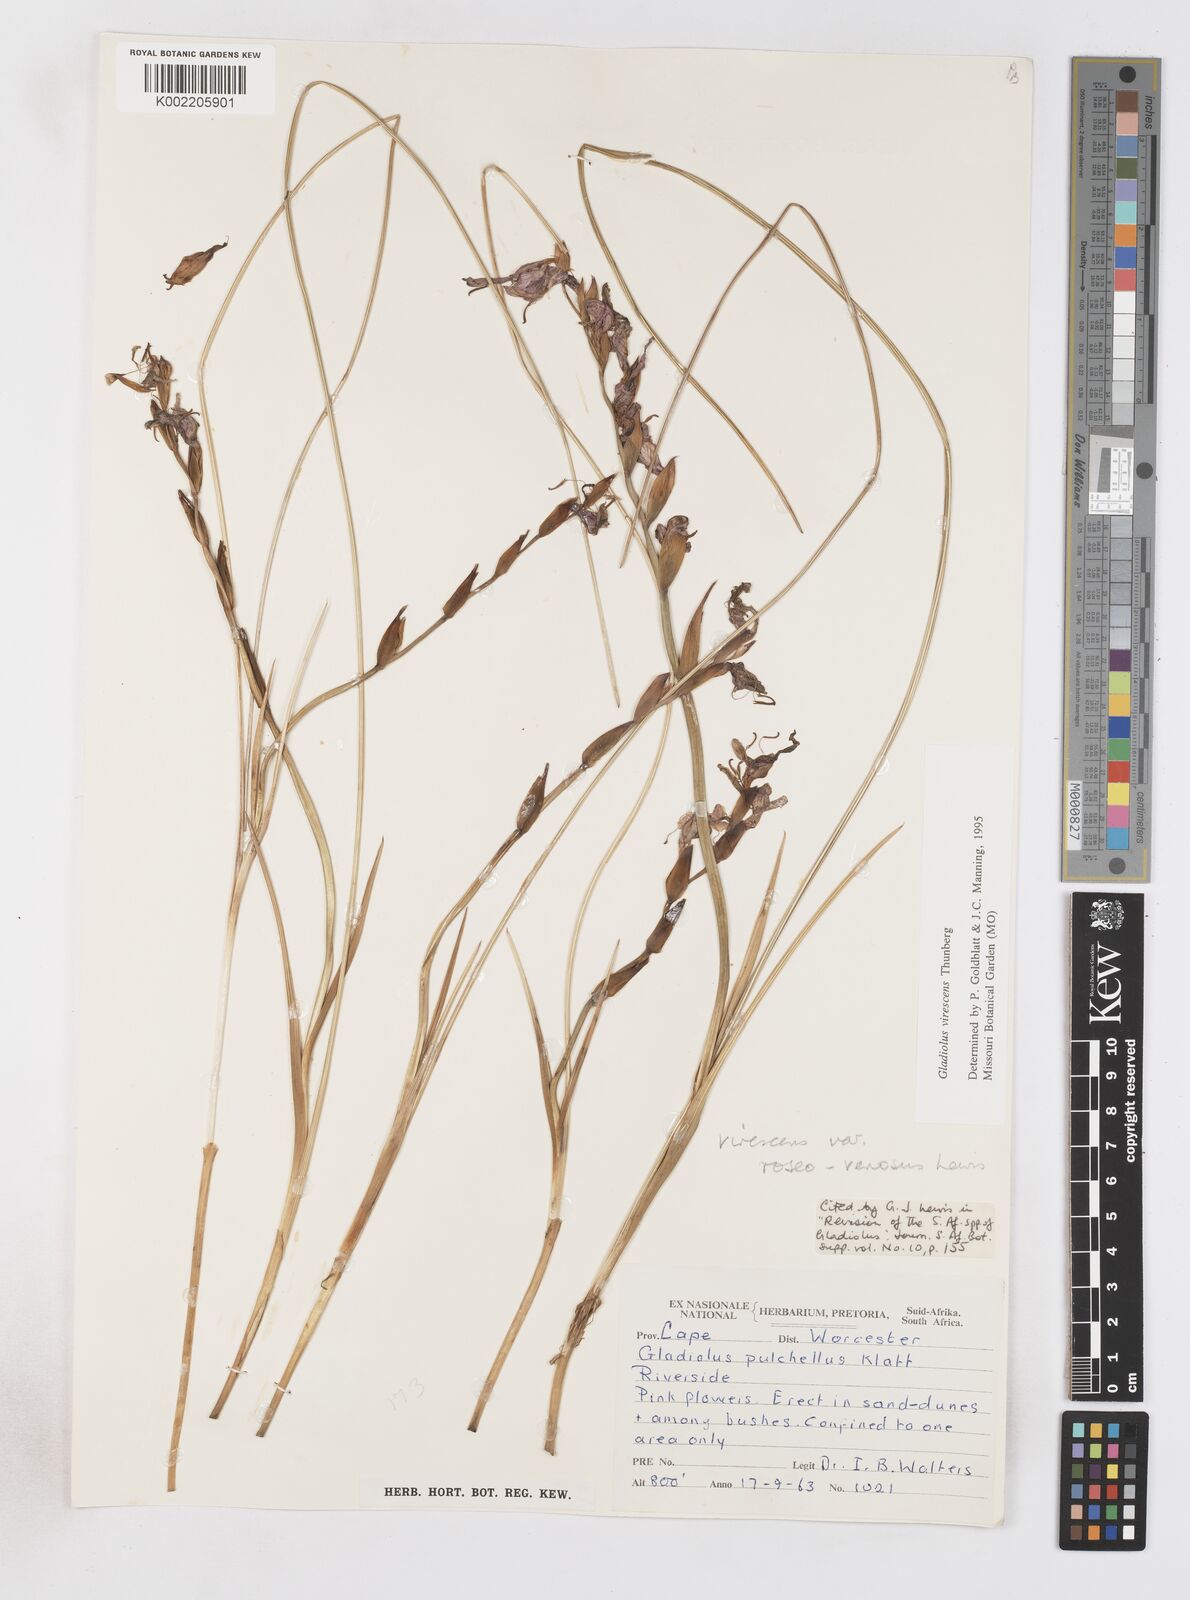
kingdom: Plantae
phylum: Tracheophyta
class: Liliopsida
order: Asparagales
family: Iridaceae
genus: Gladiolus
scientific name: Gladiolus virescens
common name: Yellow kalkoentjie
